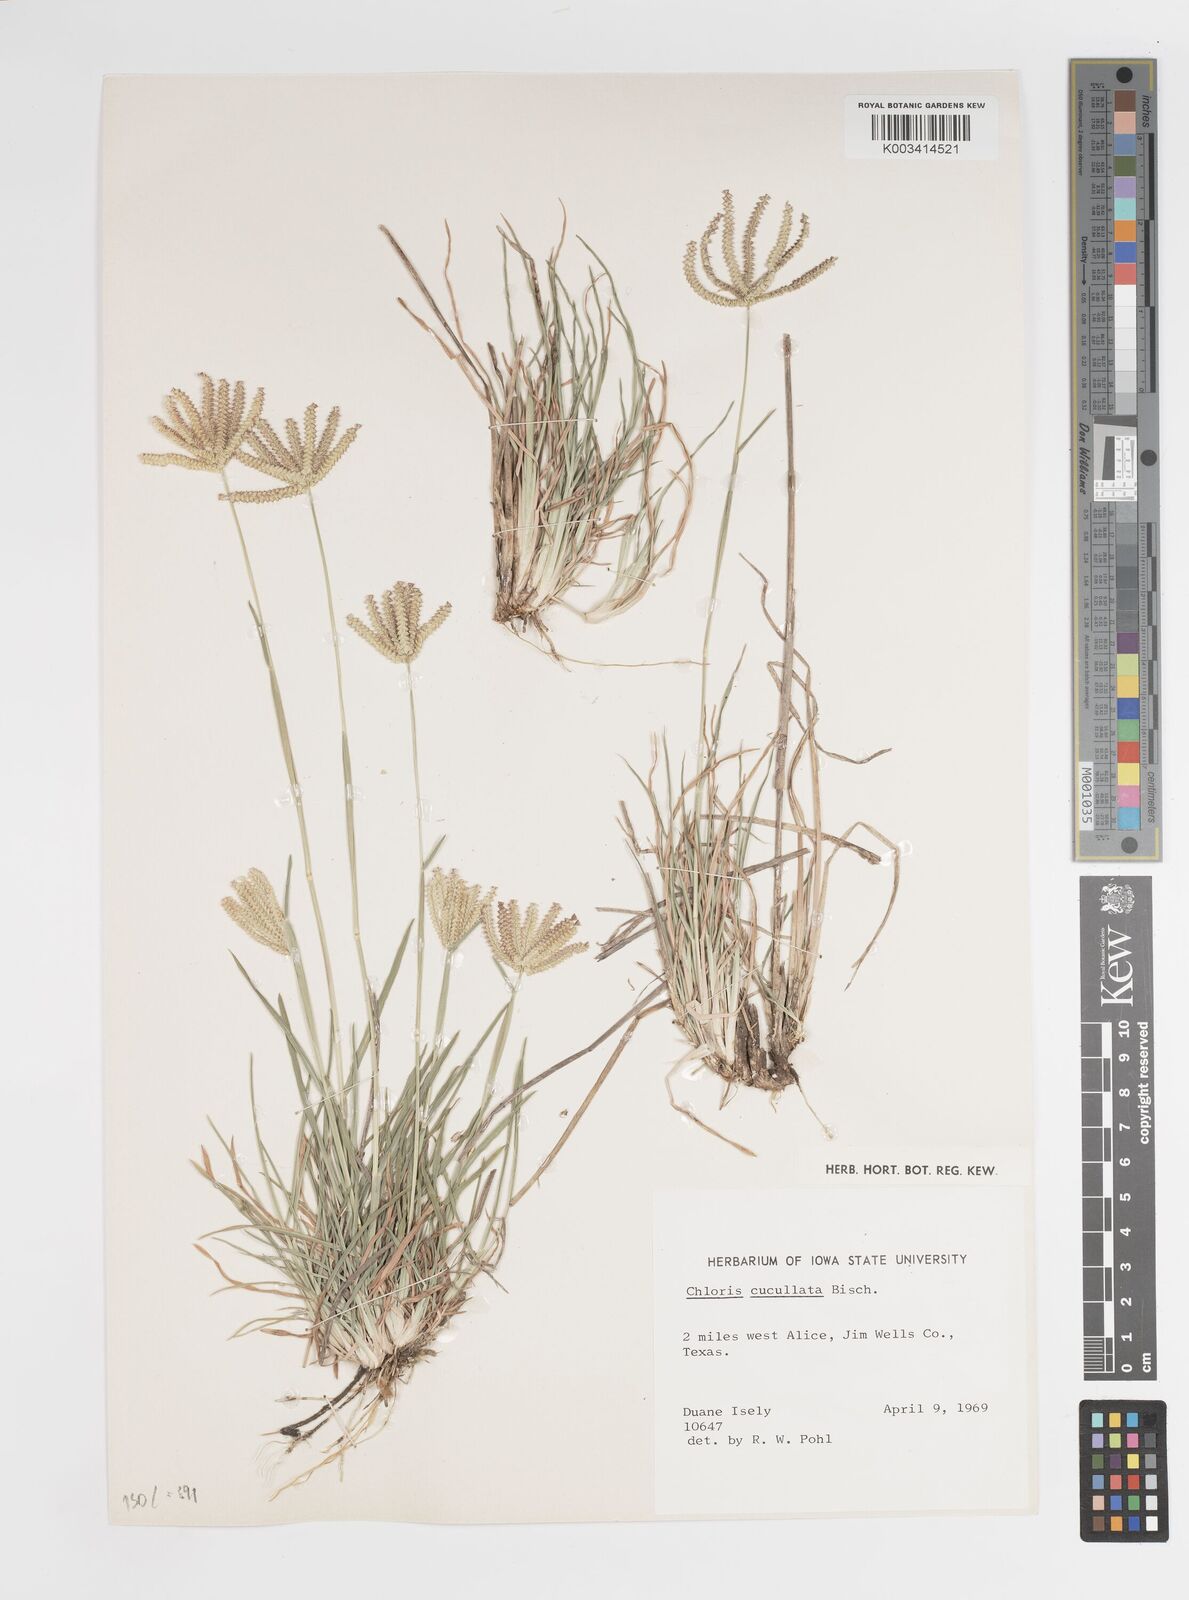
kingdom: Plantae
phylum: Tracheophyta
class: Liliopsida
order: Poales
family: Poaceae
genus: Chloris
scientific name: Chloris cucullata
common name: Hooded windmill grass
